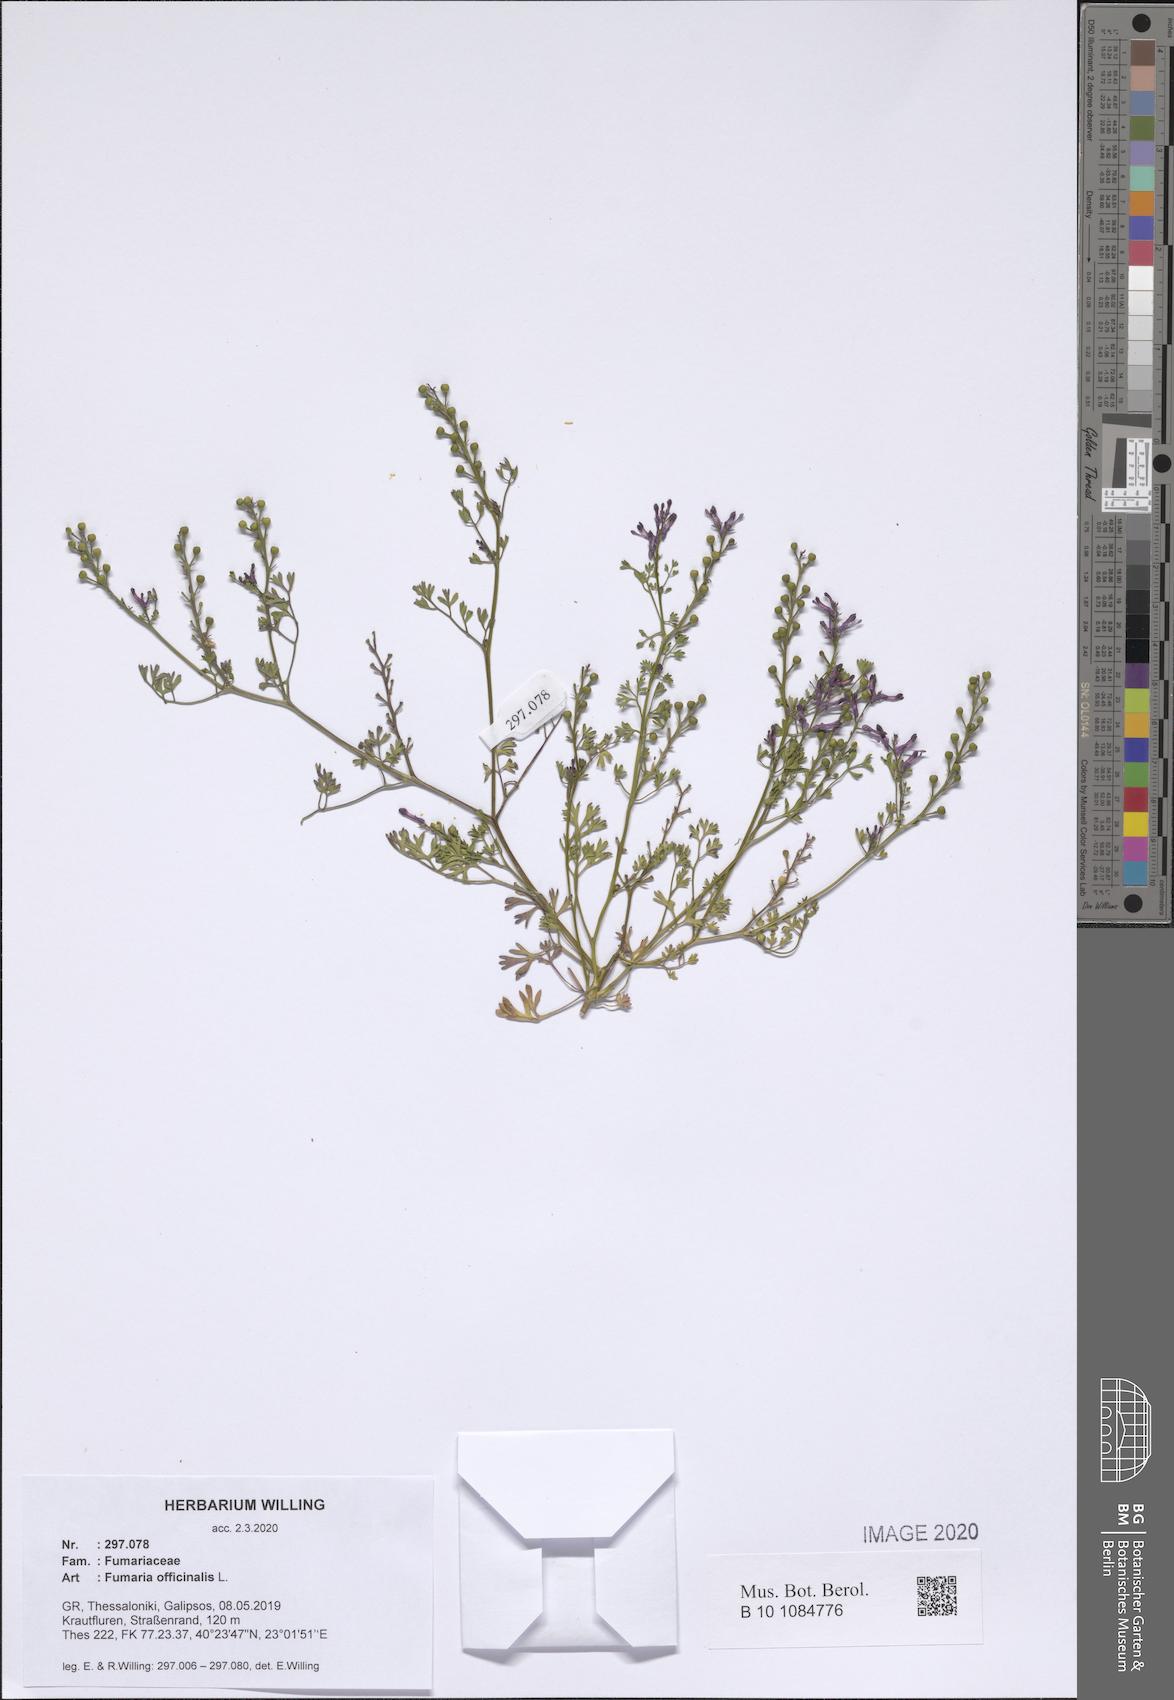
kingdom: Plantae
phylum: Tracheophyta
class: Magnoliopsida
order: Ranunculales
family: Papaveraceae
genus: Fumaria
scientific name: Fumaria officinalis
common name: Common fumitory
